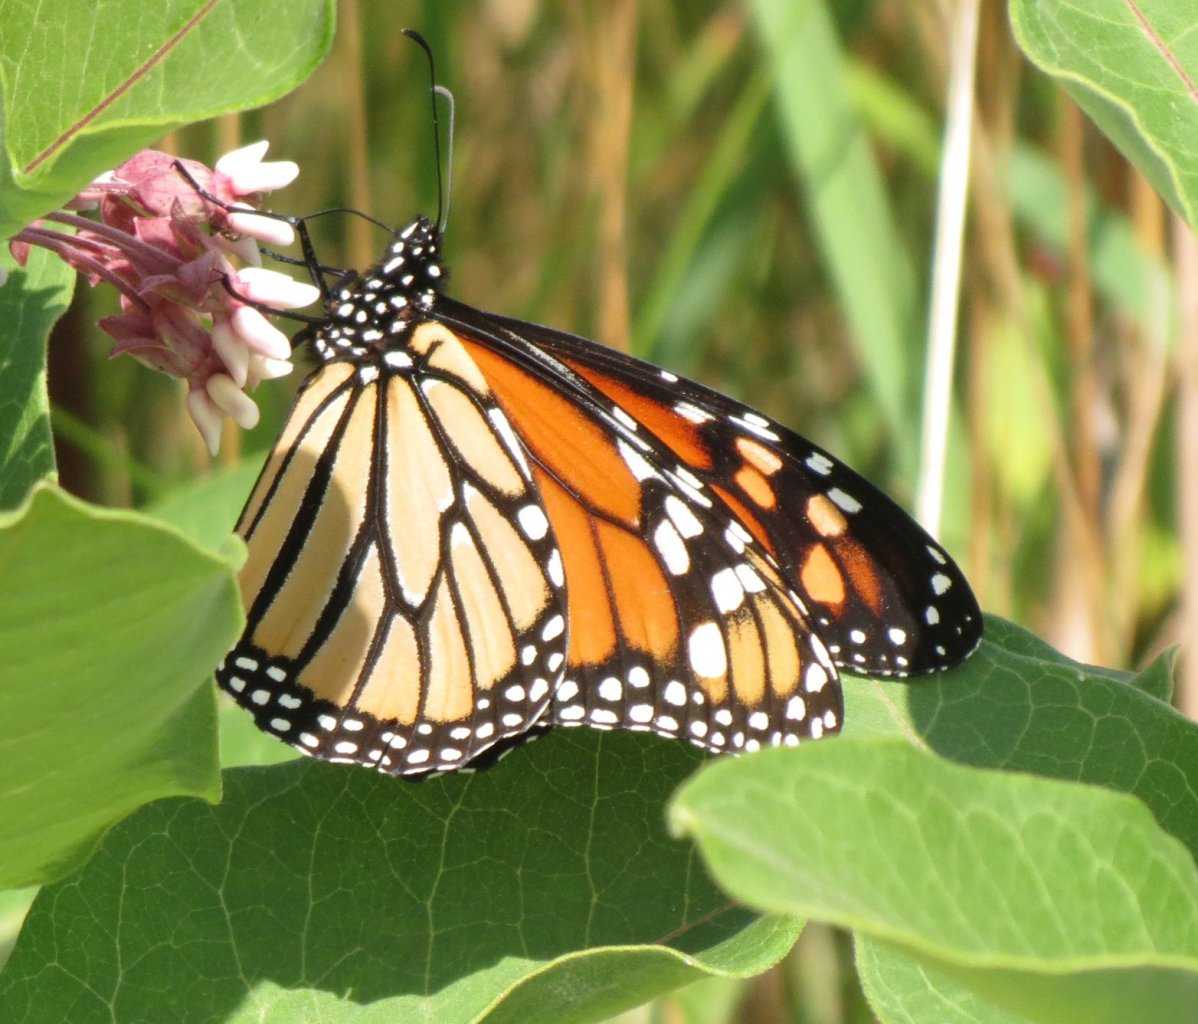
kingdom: Animalia
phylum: Arthropoda
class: Insecta
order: Lepidoptera
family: Nymphalidae
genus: Danaus
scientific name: Danaus plexippus
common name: Monarch
